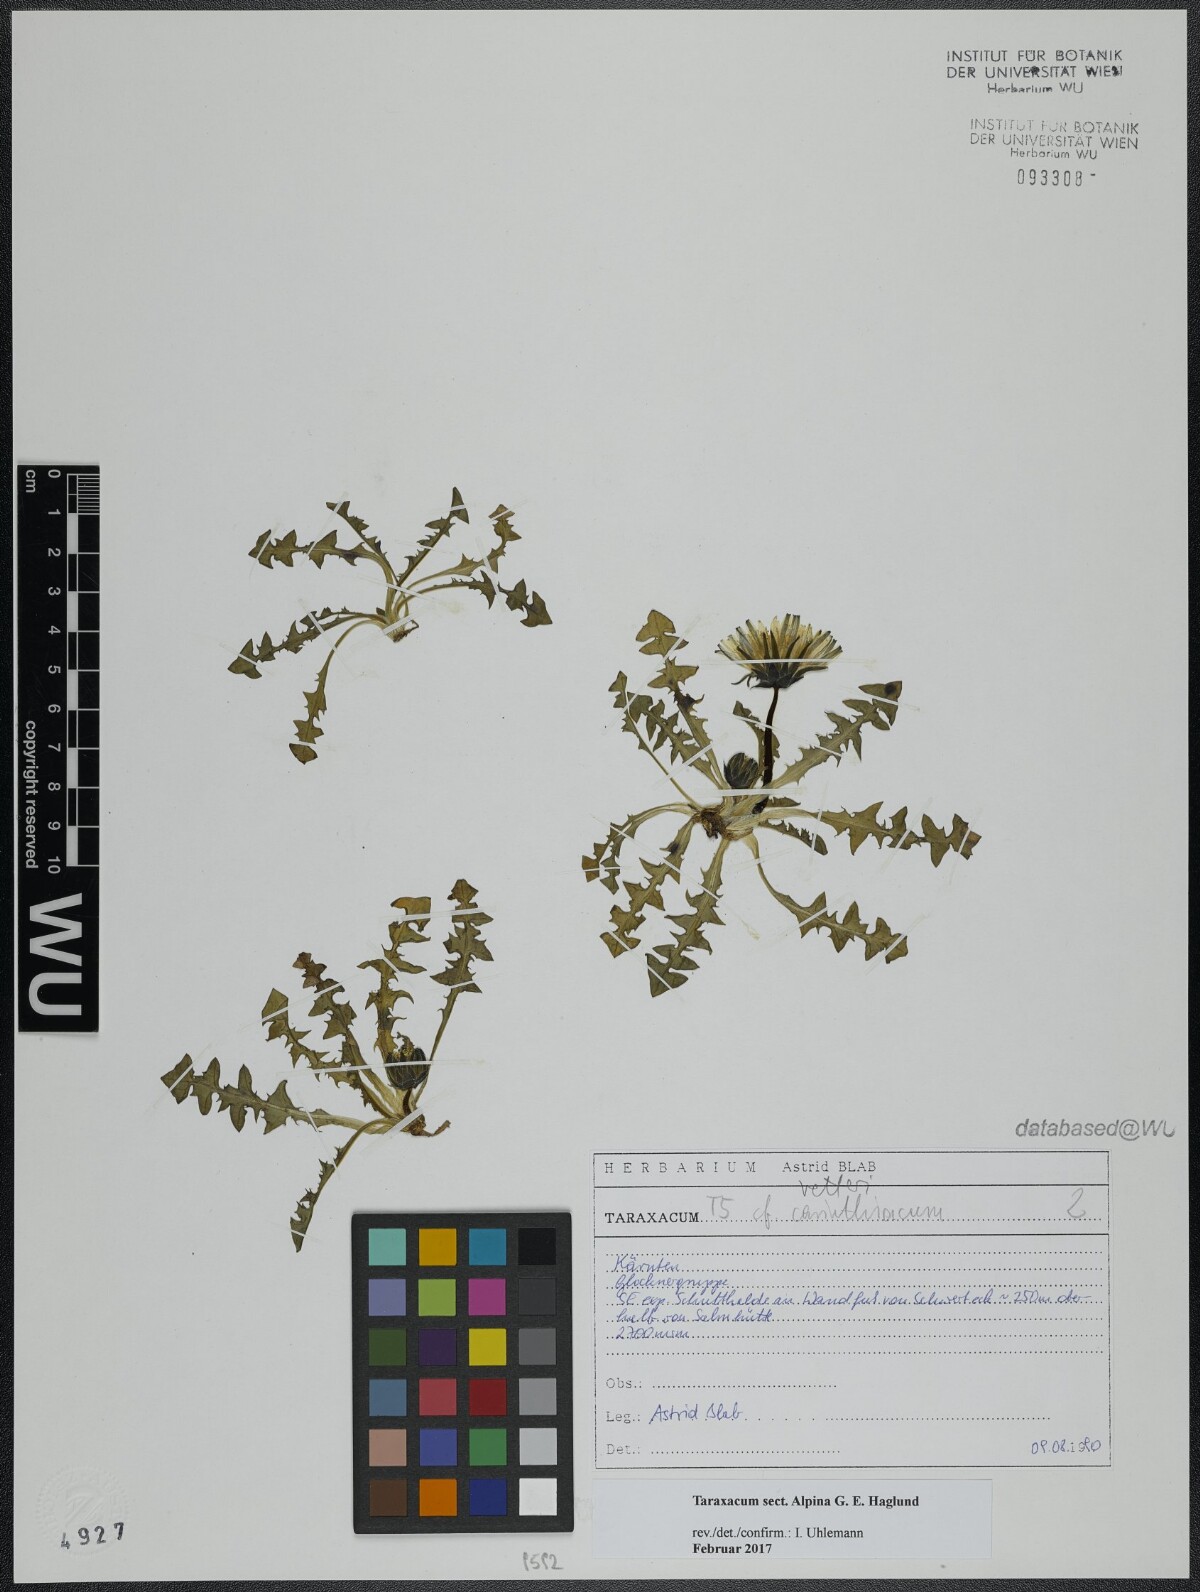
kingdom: Plantae
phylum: Tracheophyta
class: Magnoliopsida
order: Asterales
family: Asteraceae
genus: Taraxacum
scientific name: Taraxacum
